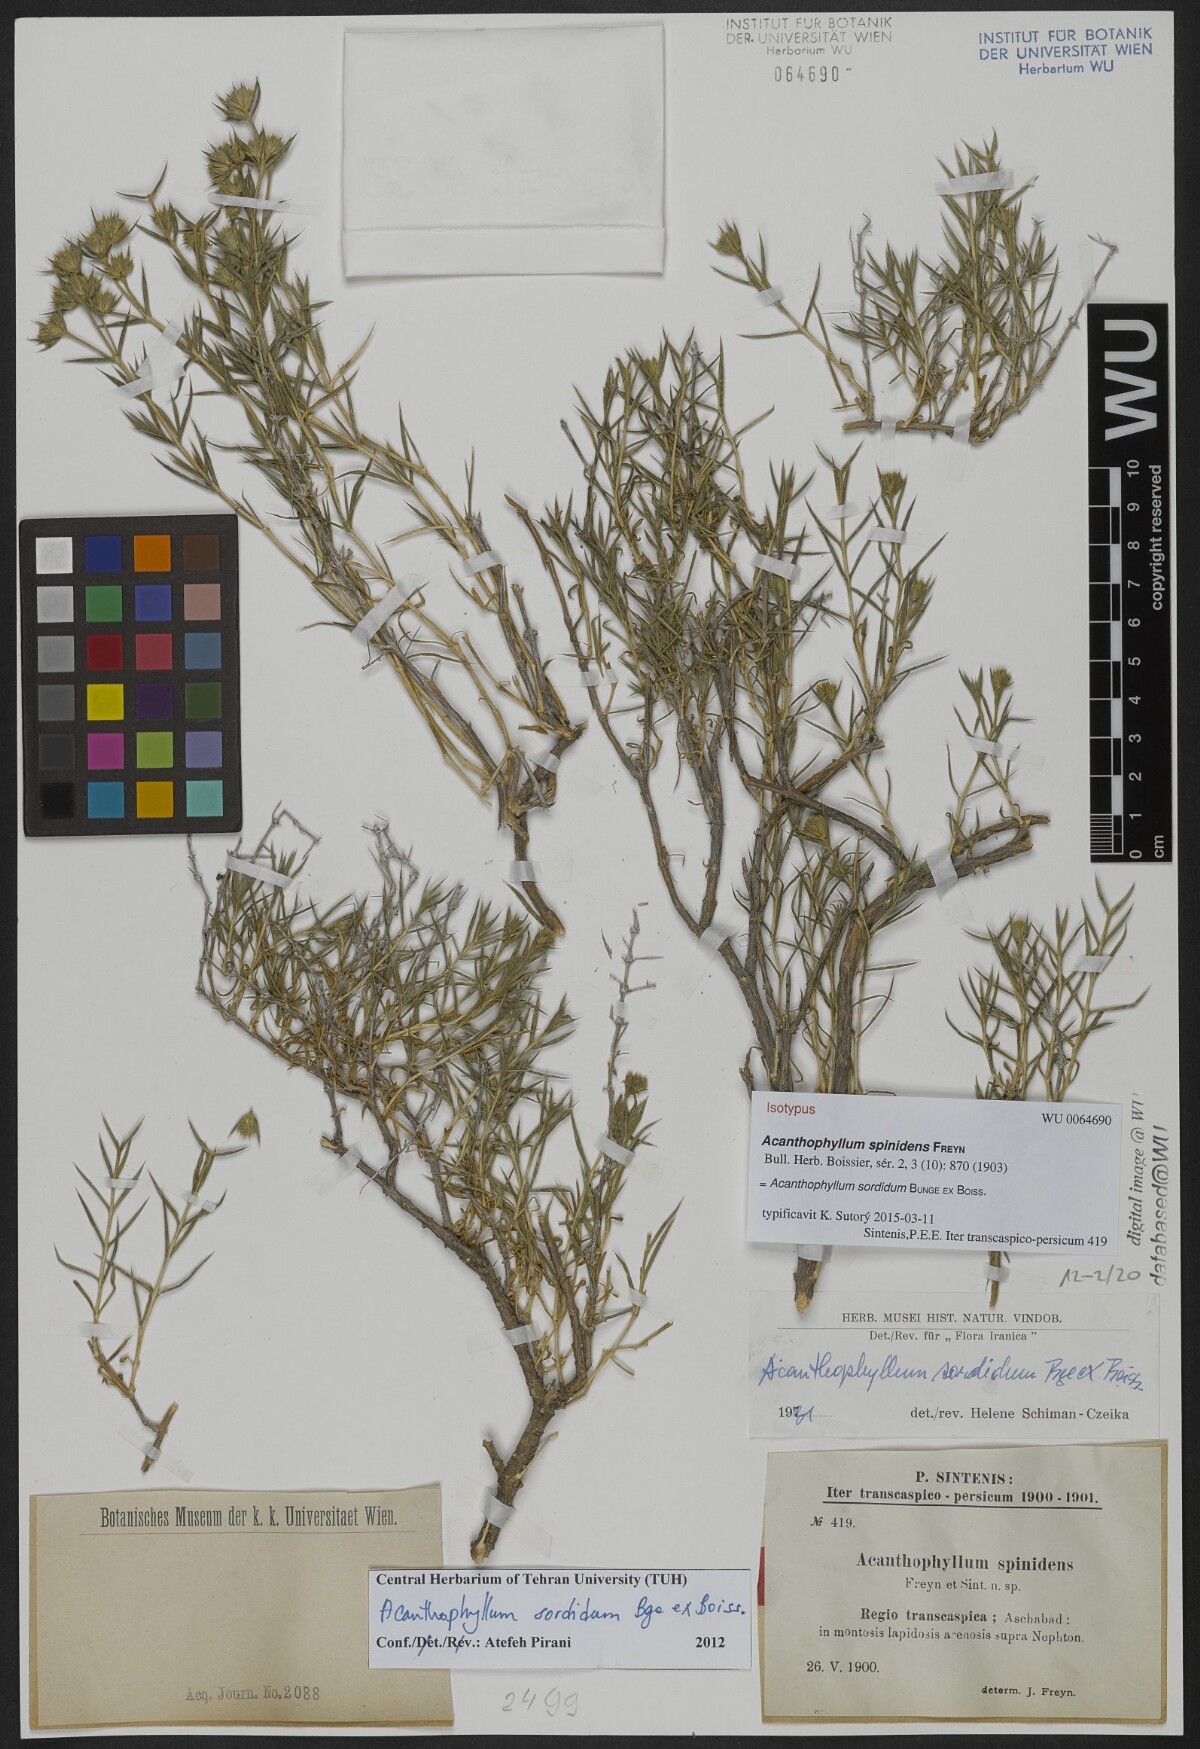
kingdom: Plantae
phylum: Tracheophyta
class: Magnoliopsida
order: Caryophyllales
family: Caryophyllaceae
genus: Acanthophyllum
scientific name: Acanthophyllum sordidum
